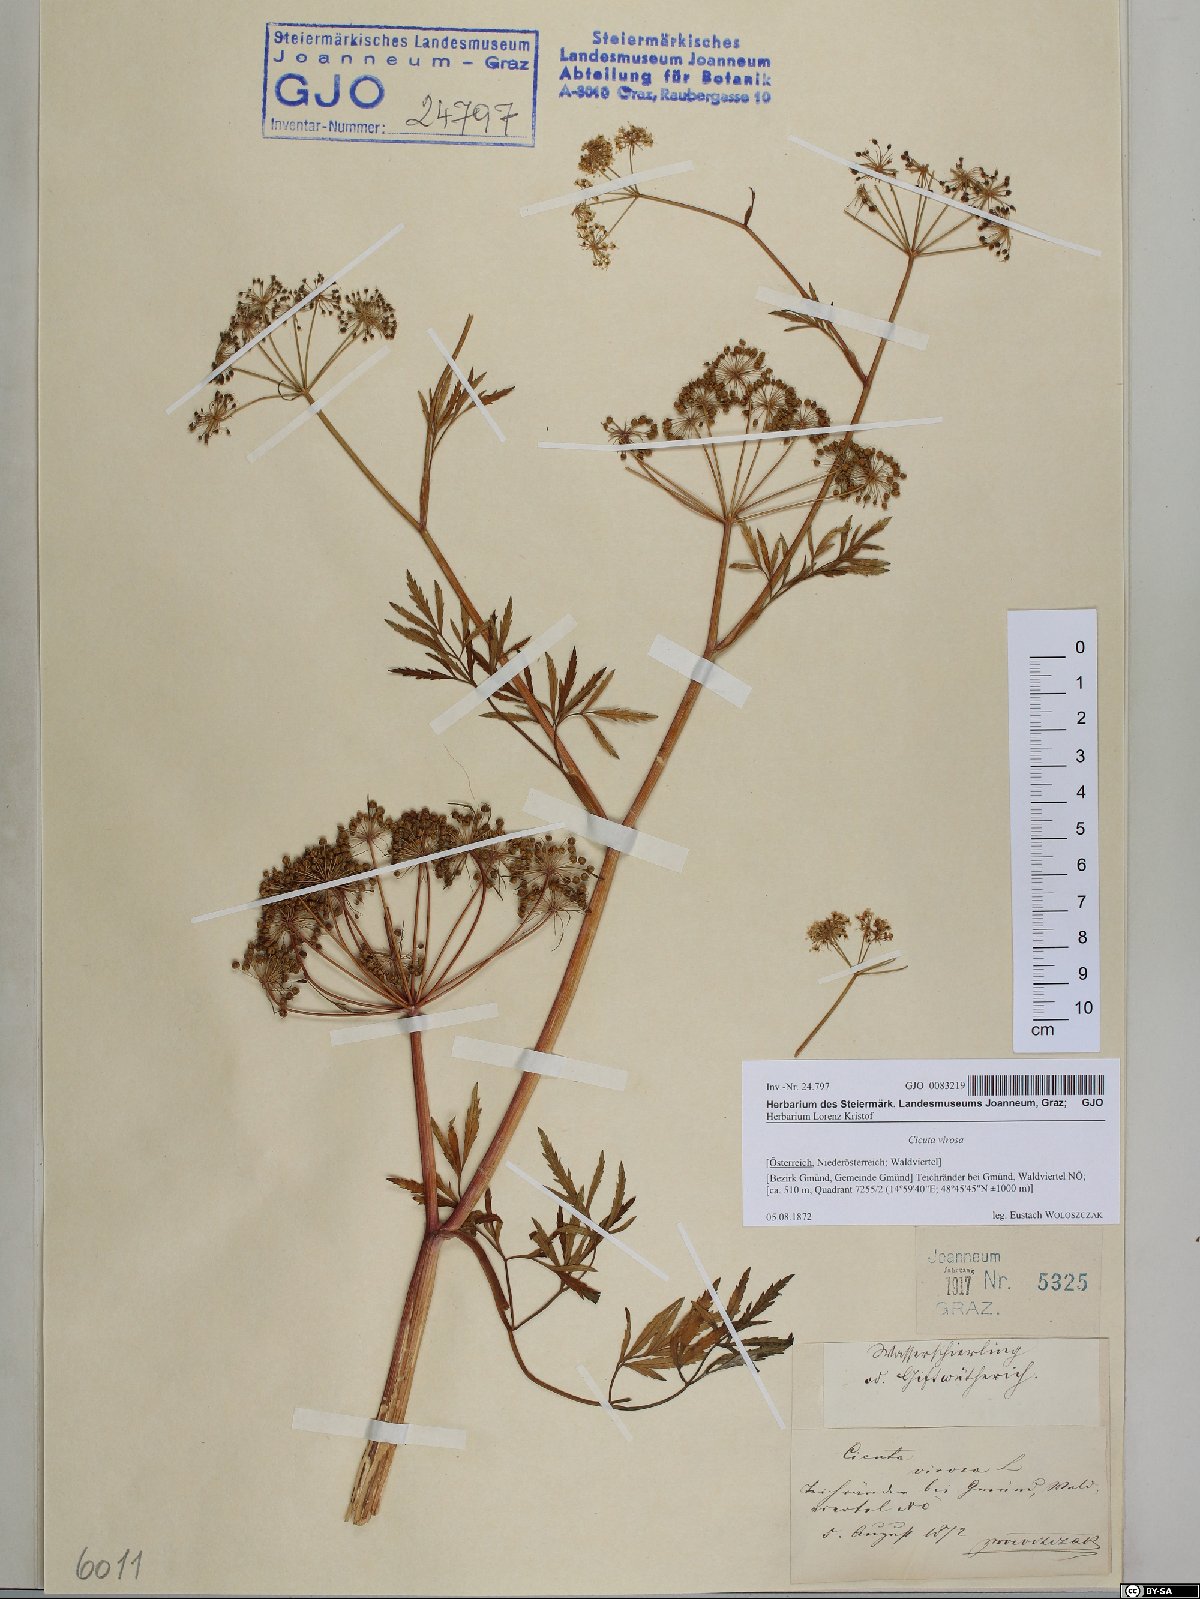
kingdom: Plantae
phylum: Tracheophyta
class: Magnoliopsida
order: Apiales
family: Apiaceae
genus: Cicuta
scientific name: Cicuta virosa
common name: Cowbane
